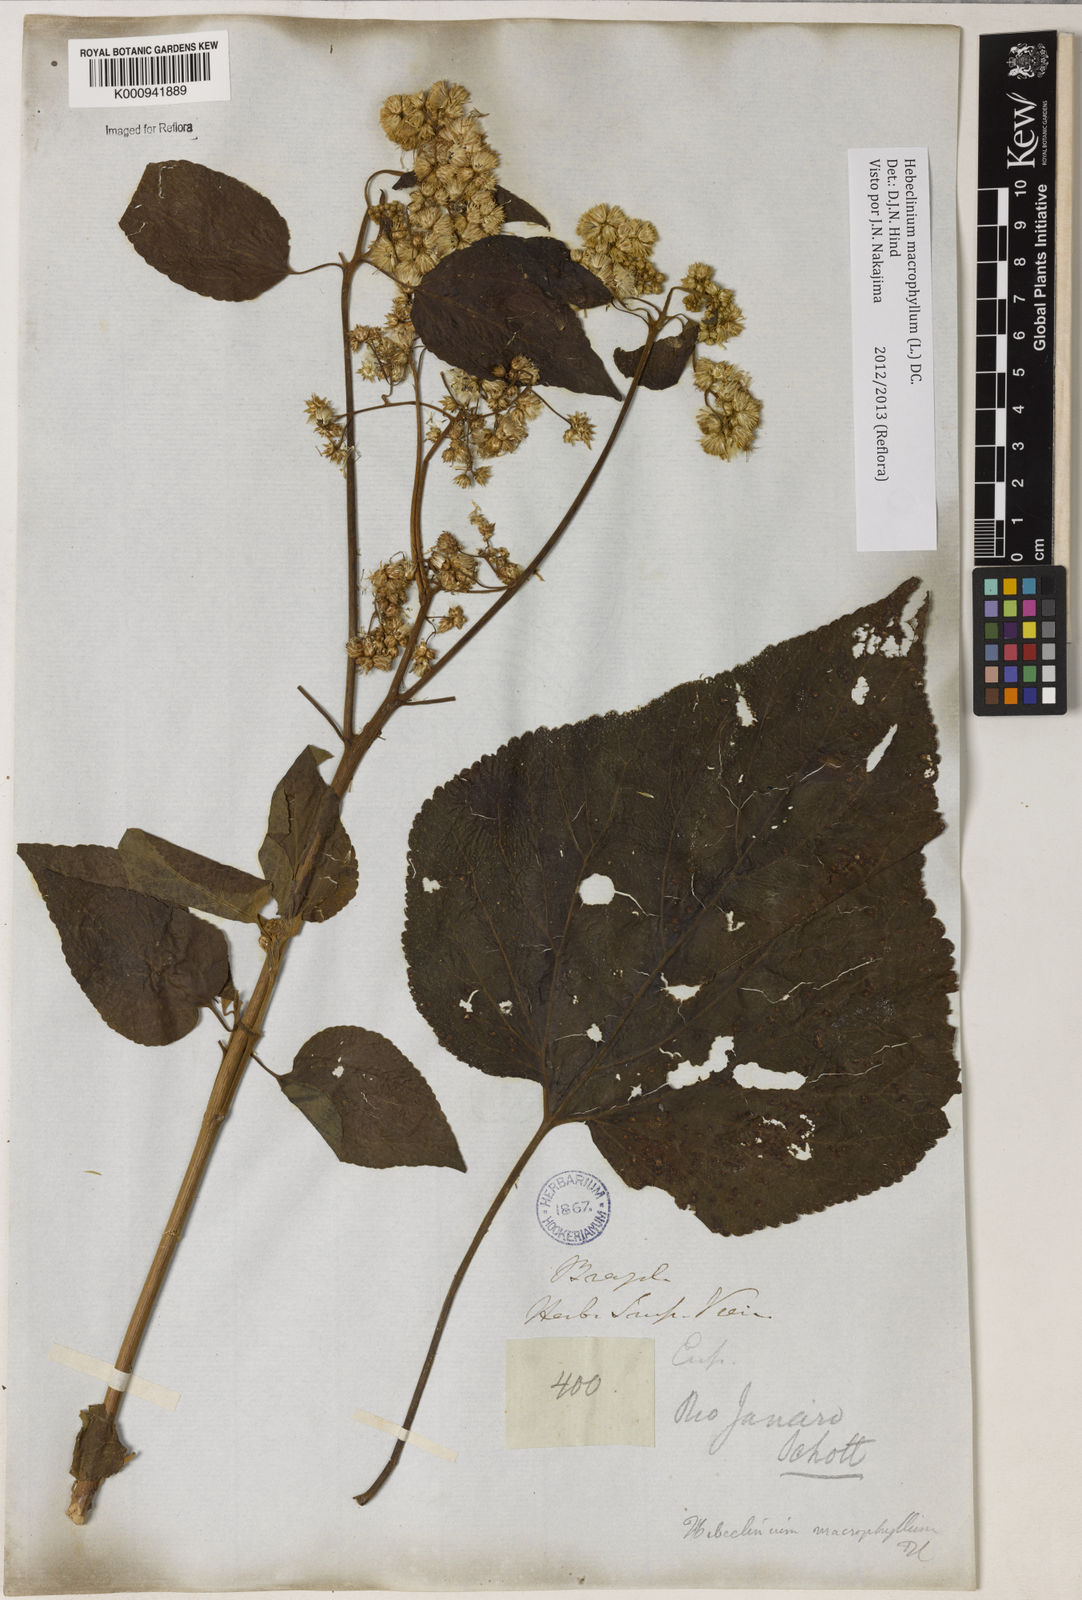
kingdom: Plantae
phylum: Tracheophyta
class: Magnoliopsida
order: Asterales
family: Asteraceae
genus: Hebeclinium
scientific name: Hebeclinium macrophyllum
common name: Largeleaf thoroughwort
